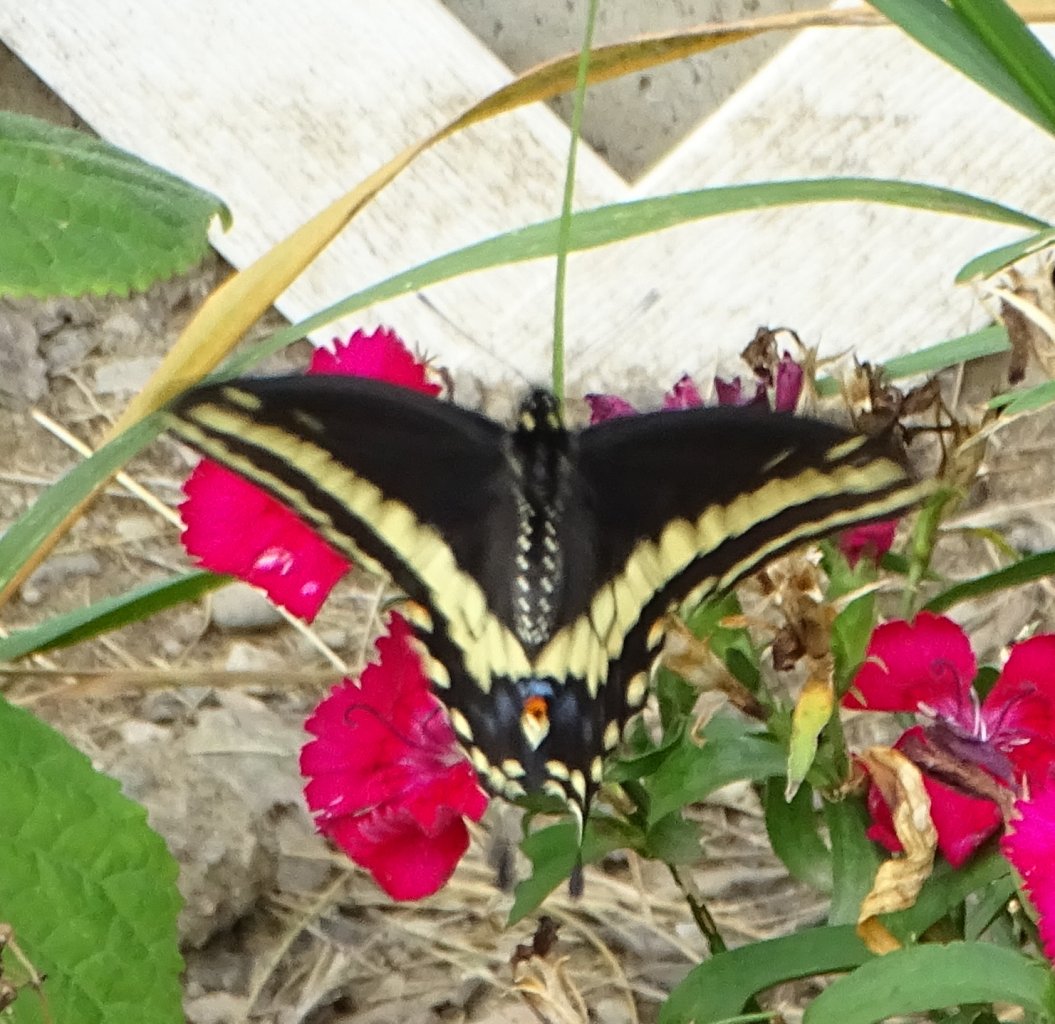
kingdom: Animalia
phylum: Arthropoda
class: Insecta
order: Lepidoptera
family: Papilionidae
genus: Papilio
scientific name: Papilio polyxenes
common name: Black Swallowtail
